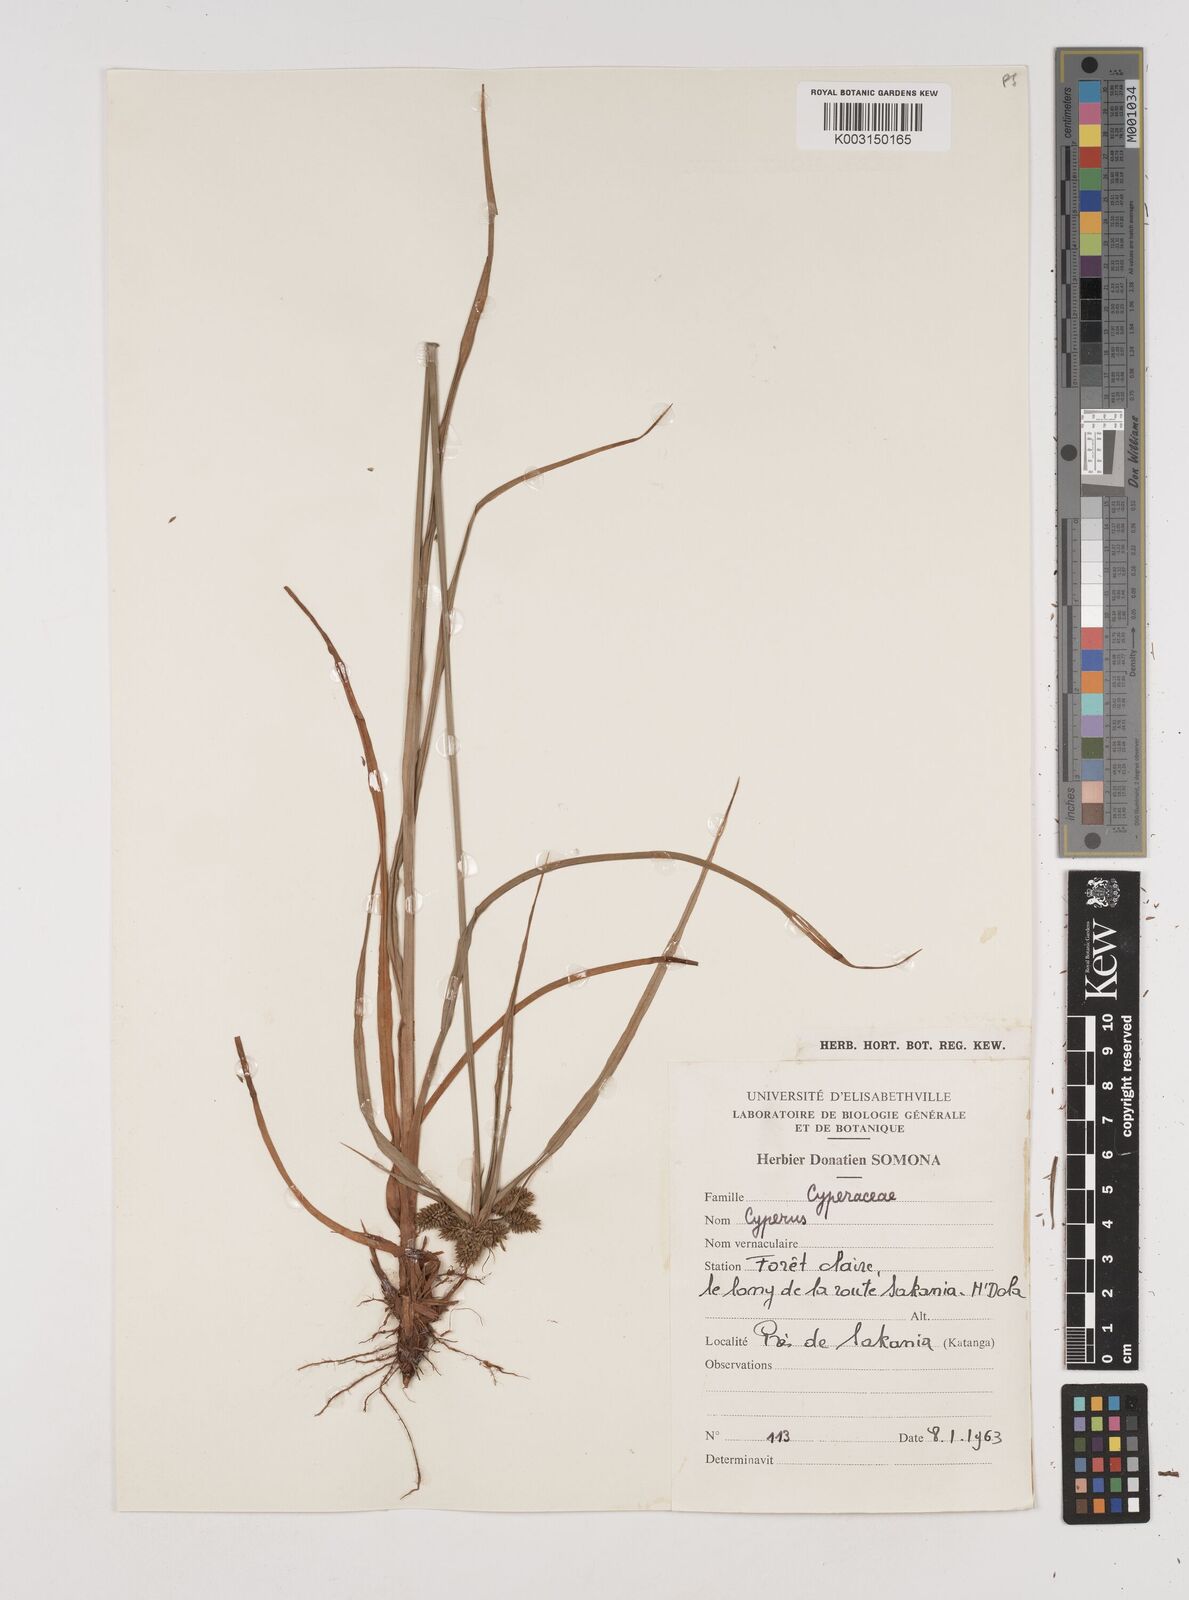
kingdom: Plantae
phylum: Tracheophyta
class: Liliopsida
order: Poales
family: Cyperaceae
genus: Cyperus
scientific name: Cyperus
